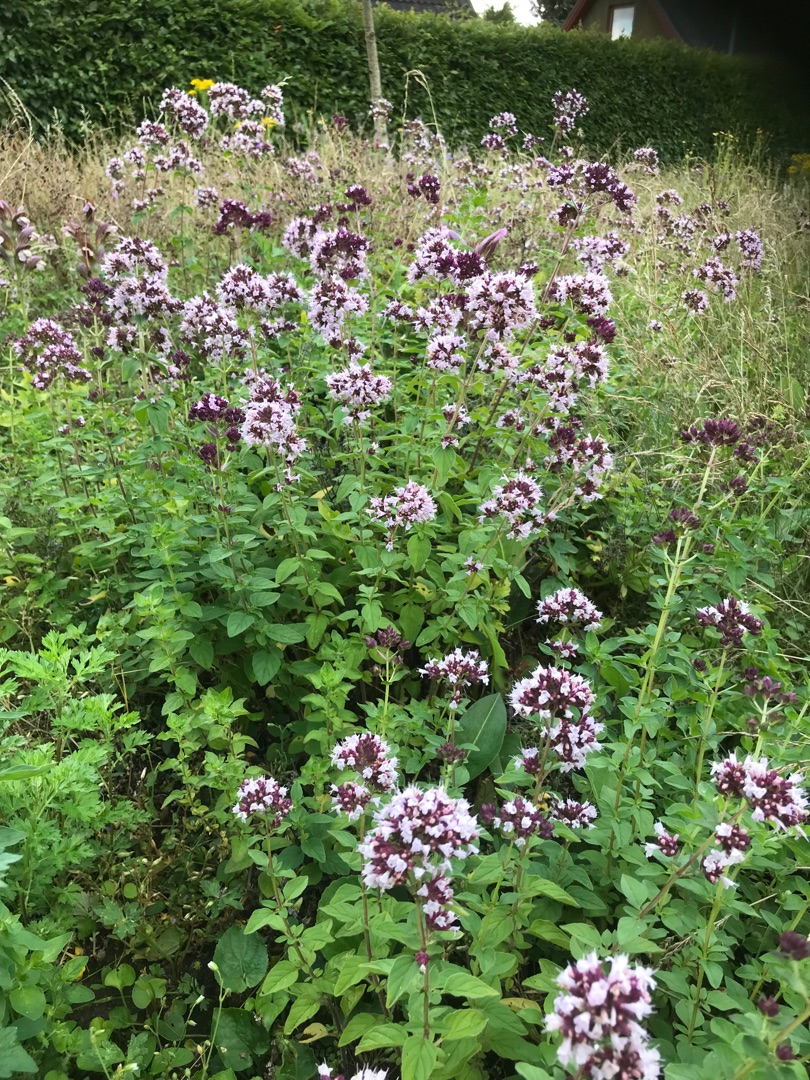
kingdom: Plantae
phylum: Tracheophyta
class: Magnoliopsida
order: Lamiales
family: Lamiaceae
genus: Origanum
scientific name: Origanum vulgare
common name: Merian
